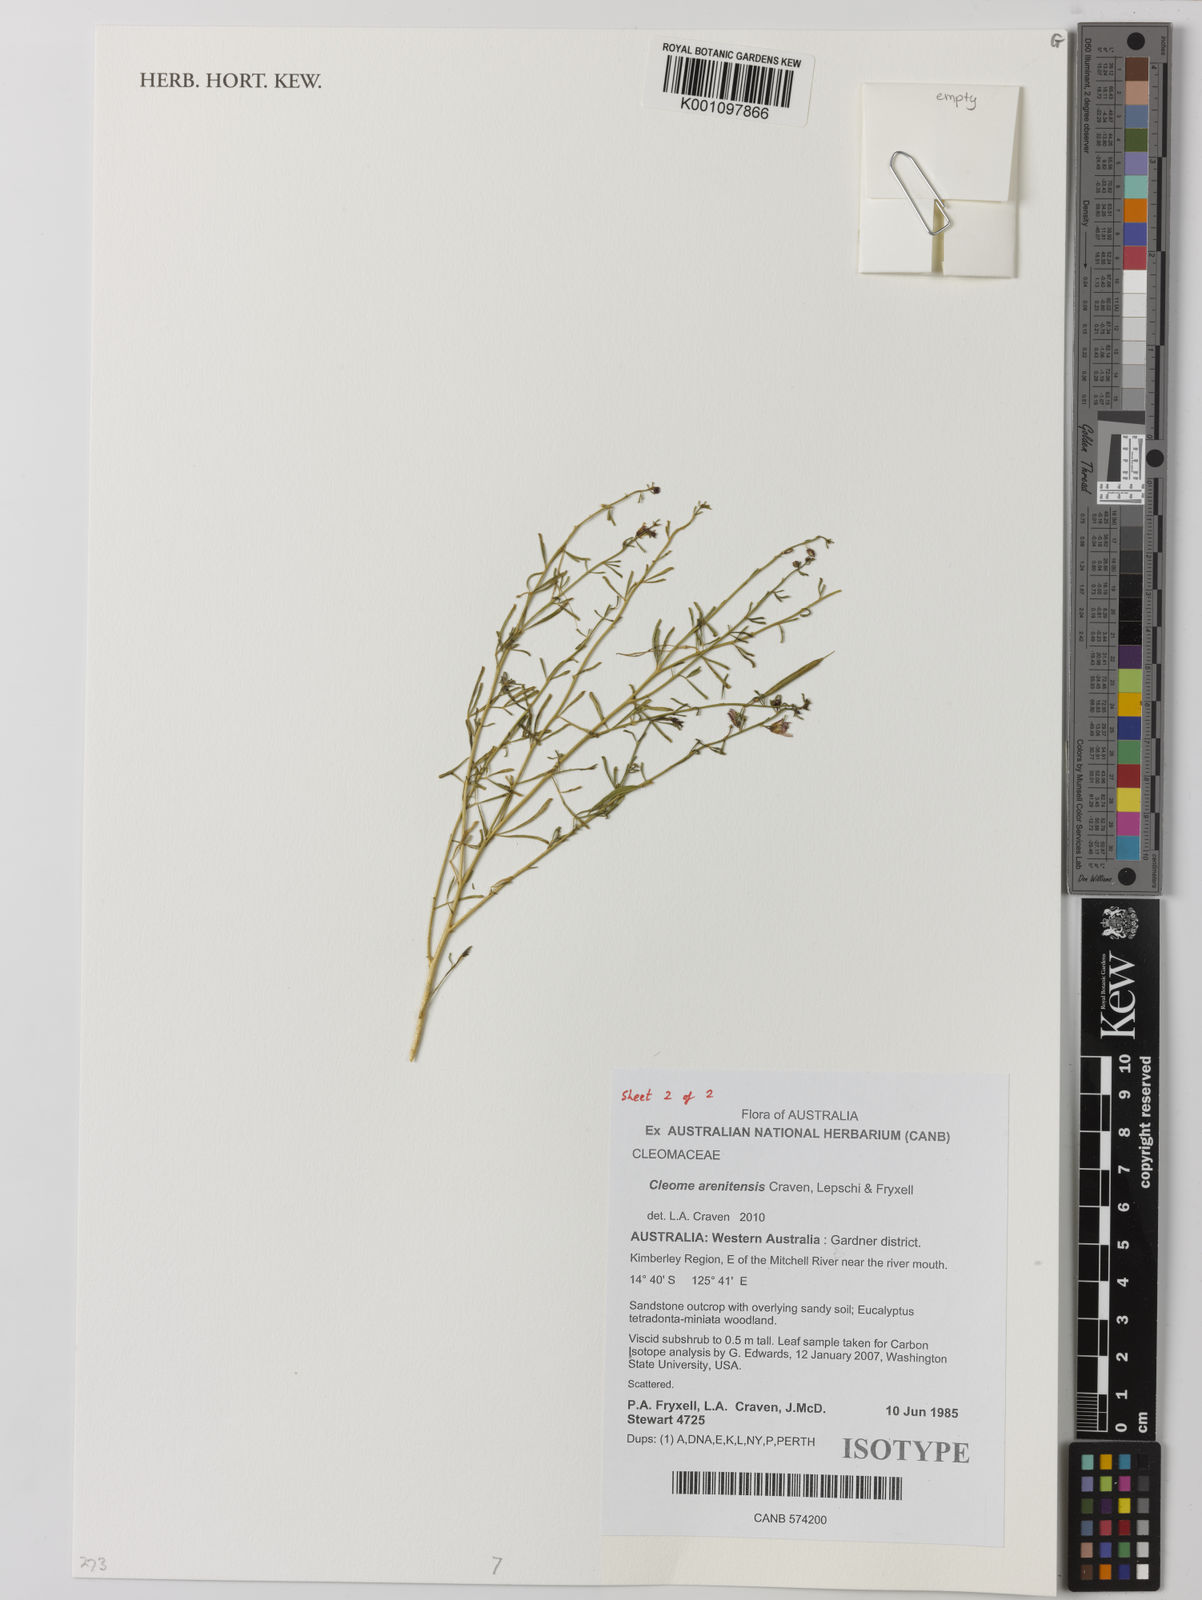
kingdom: Plantae
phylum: Tracheophyta
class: Magnoliopsida
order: Brassicales
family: Cleomaceae
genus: Arivela
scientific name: Arivela arenitensis
